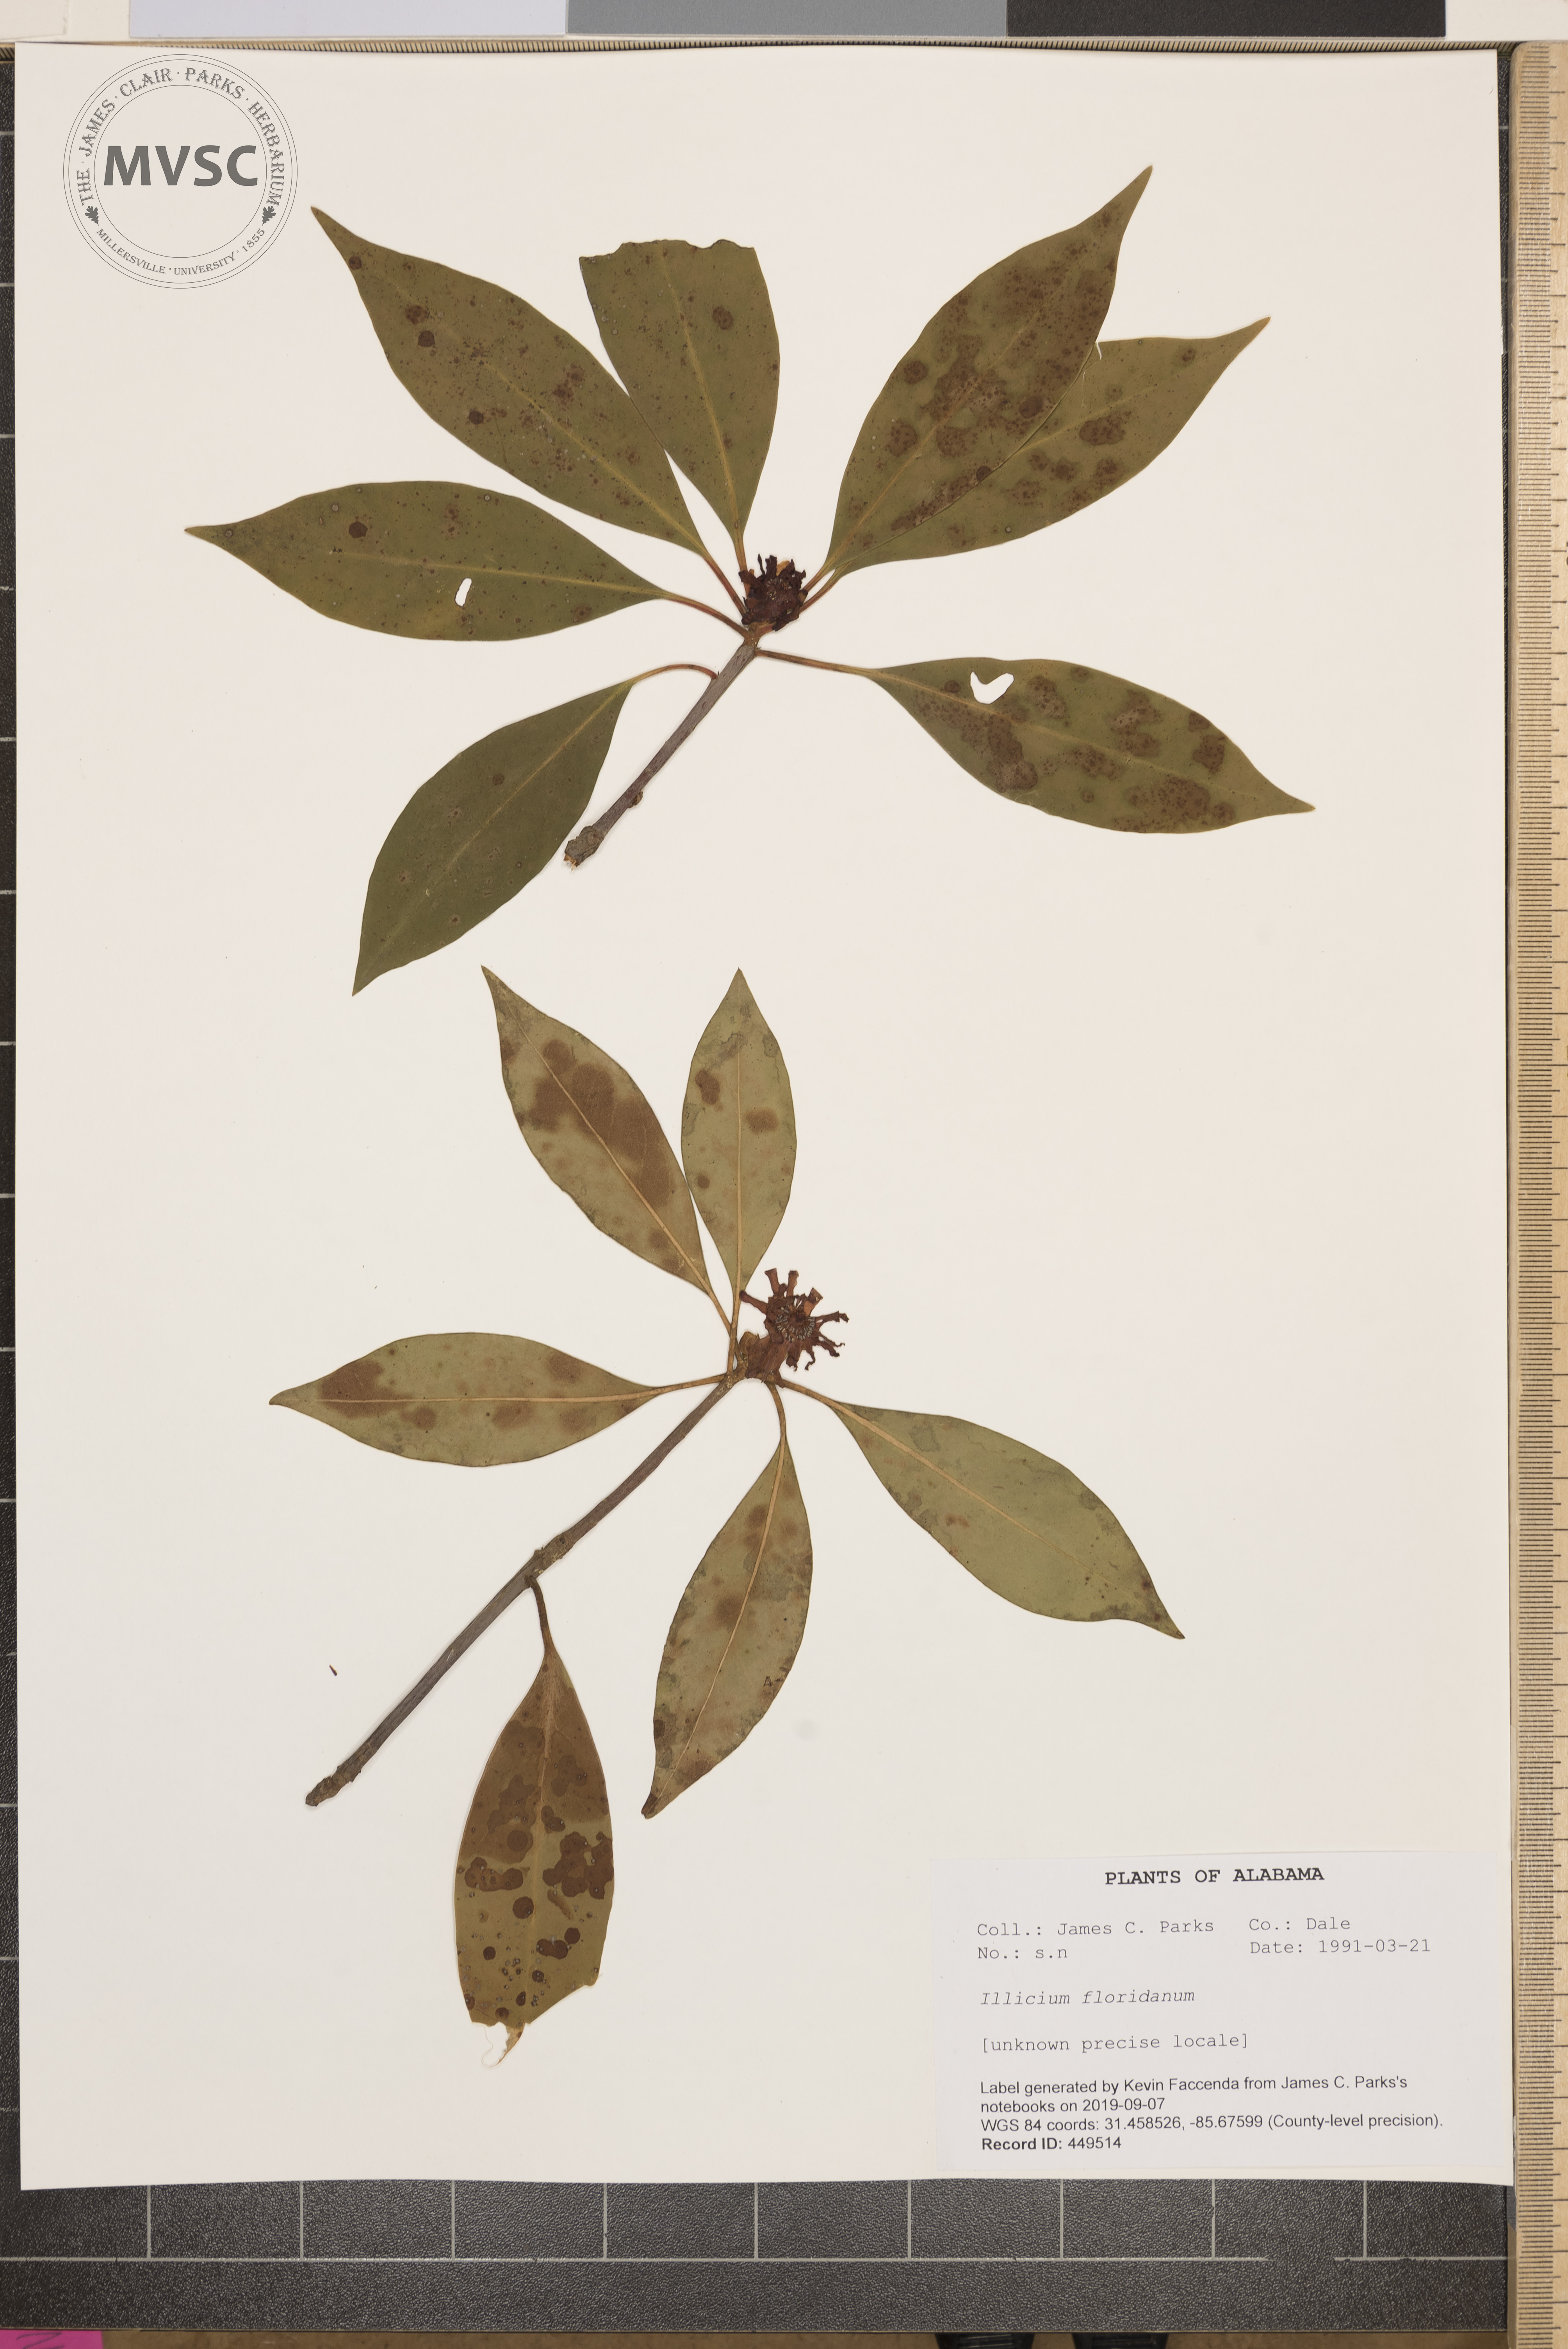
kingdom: Plantae
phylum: Tracheophyta
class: Magnoliopsida
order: Austrobaileyales
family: Schisandraceae
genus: Illicium
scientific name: Illicium floridanum
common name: Florida anisetree
